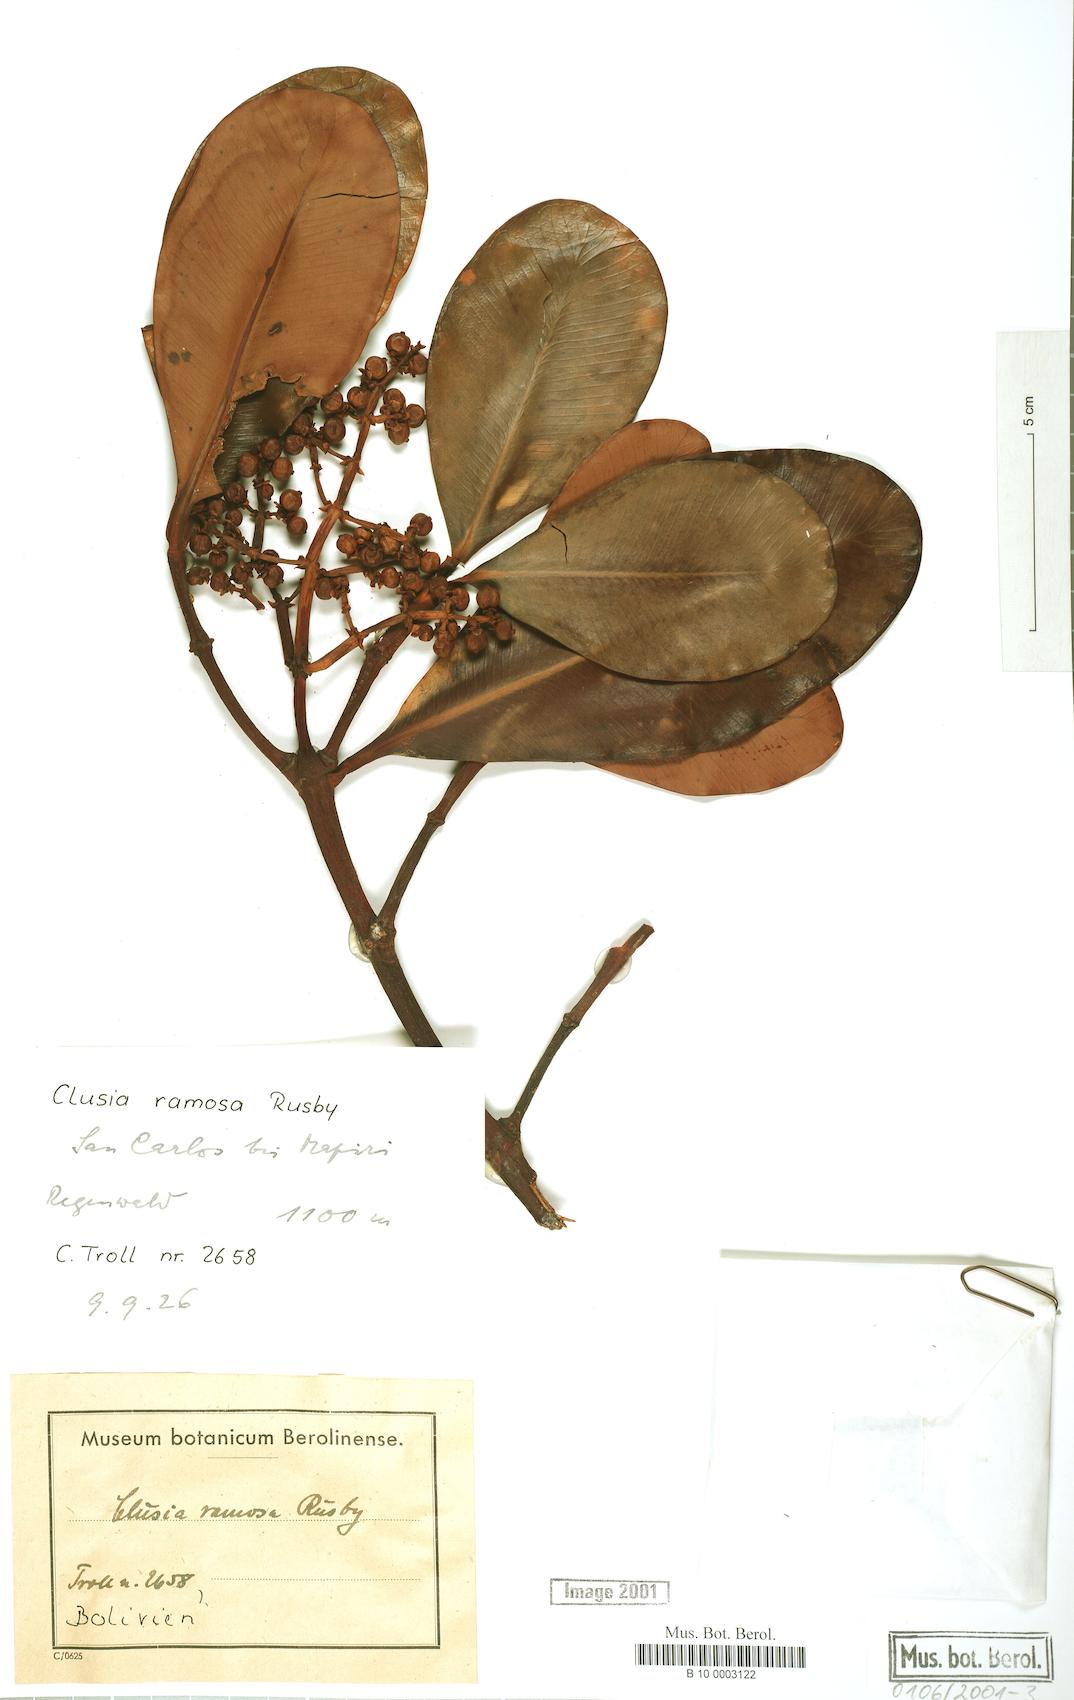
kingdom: Plantae
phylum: Tracheophyta
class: Magnoliopsida
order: Malpighiales
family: Clusiaceae
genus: Clusia
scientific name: Clusia ramosa
